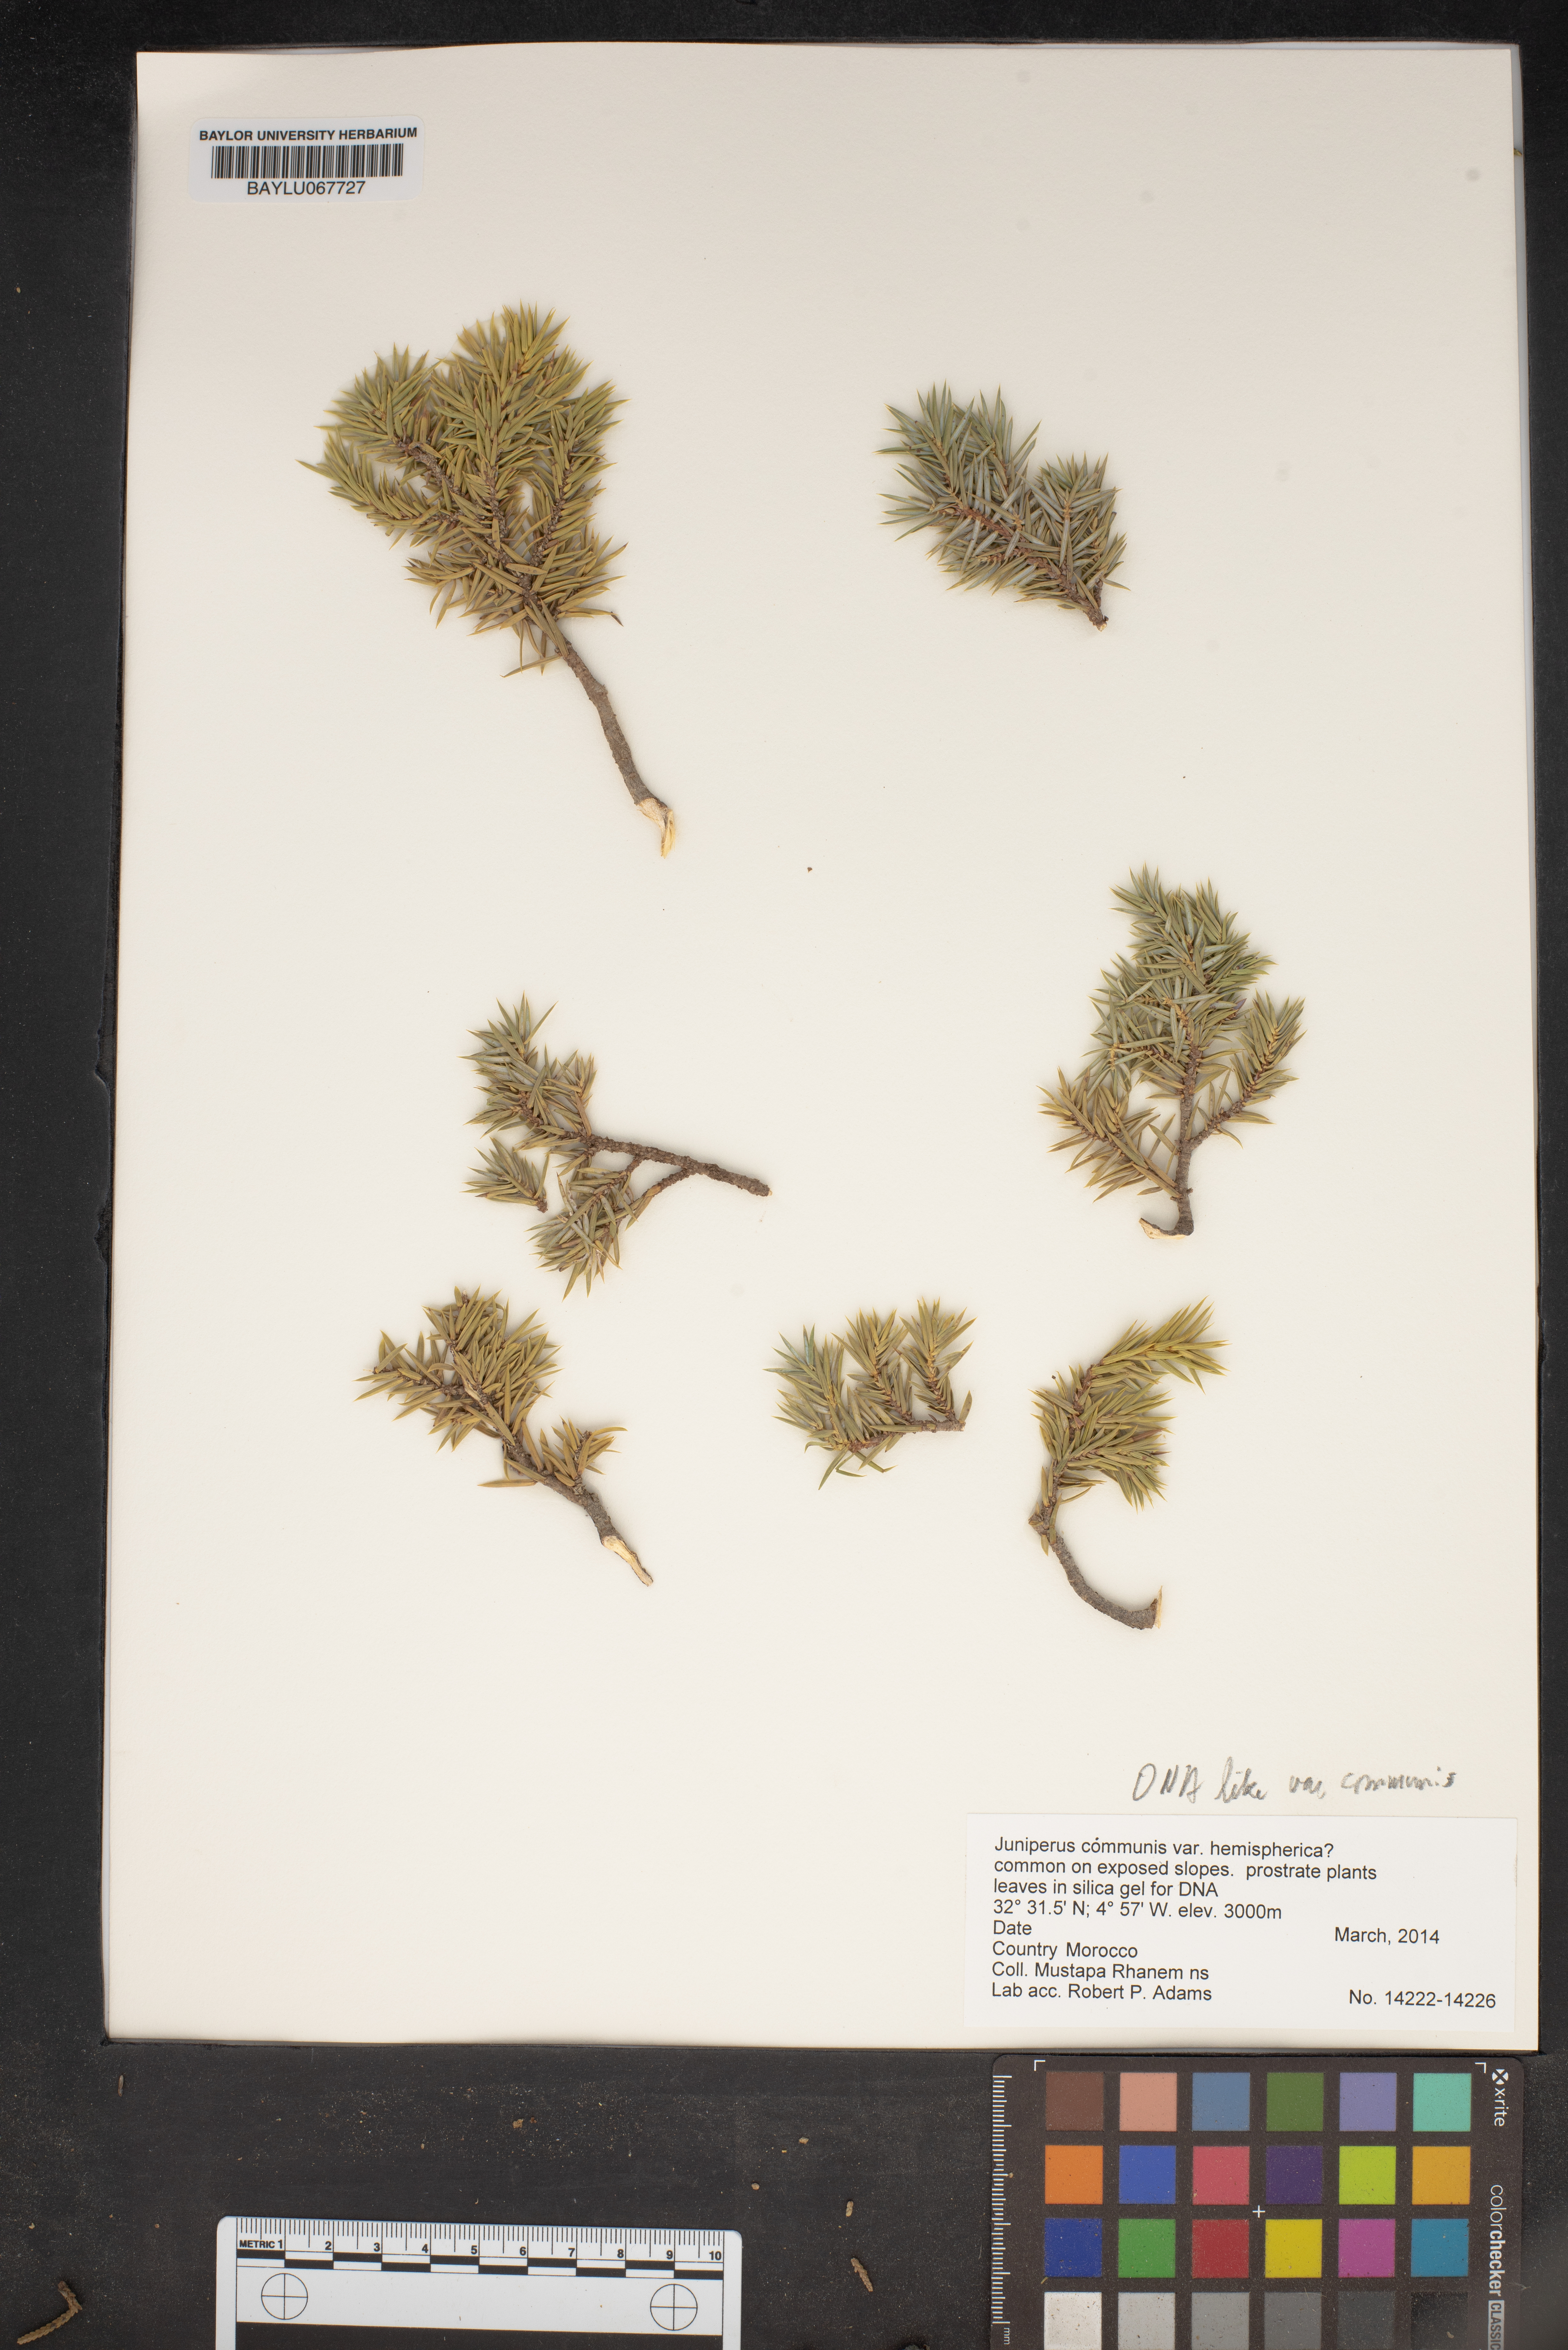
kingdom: Plantae
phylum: Tracheophyta
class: Pinopsida
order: Pinales
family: Cupressaceae
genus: Juniperus
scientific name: Juniperus communis
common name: Common juniper
